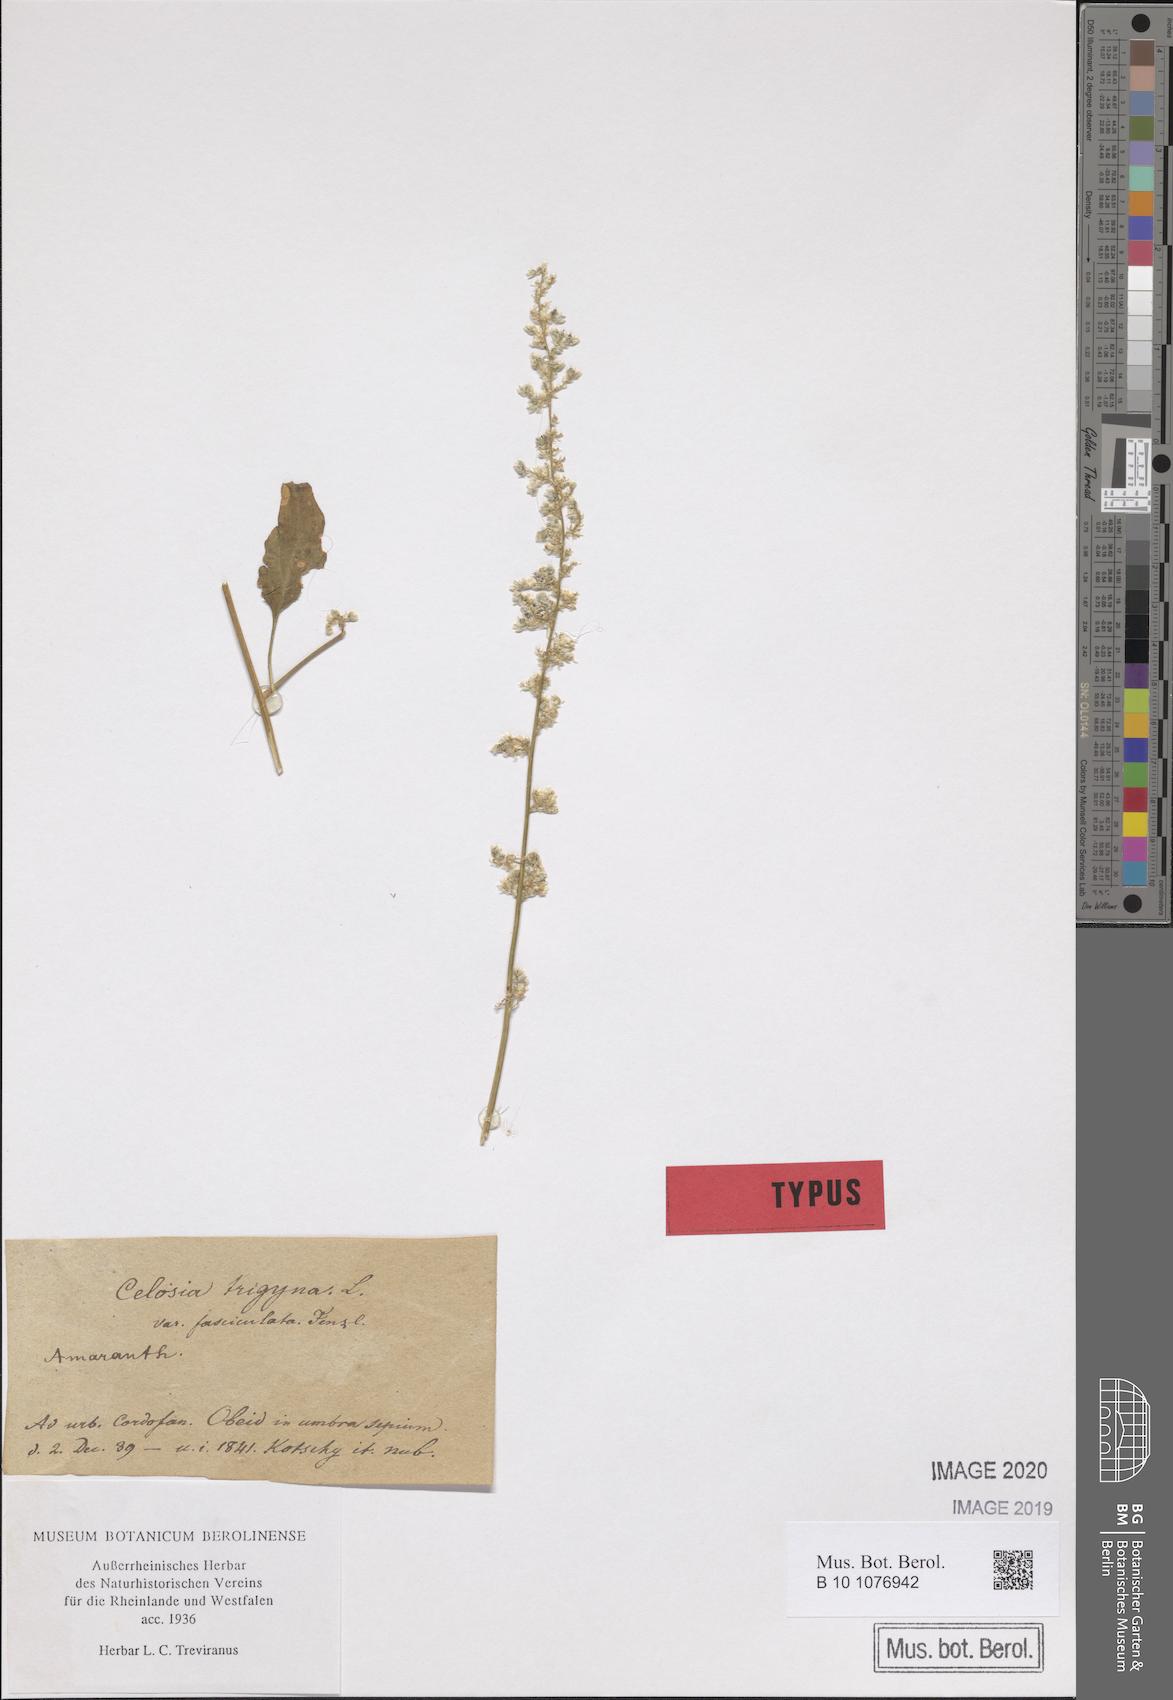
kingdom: Plantae
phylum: Tracheophyta
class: Magnoliopsida
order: Caryophyllales
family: Amaranthaceae
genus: Celosia
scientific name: Celosia trigyna
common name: Woolflower
